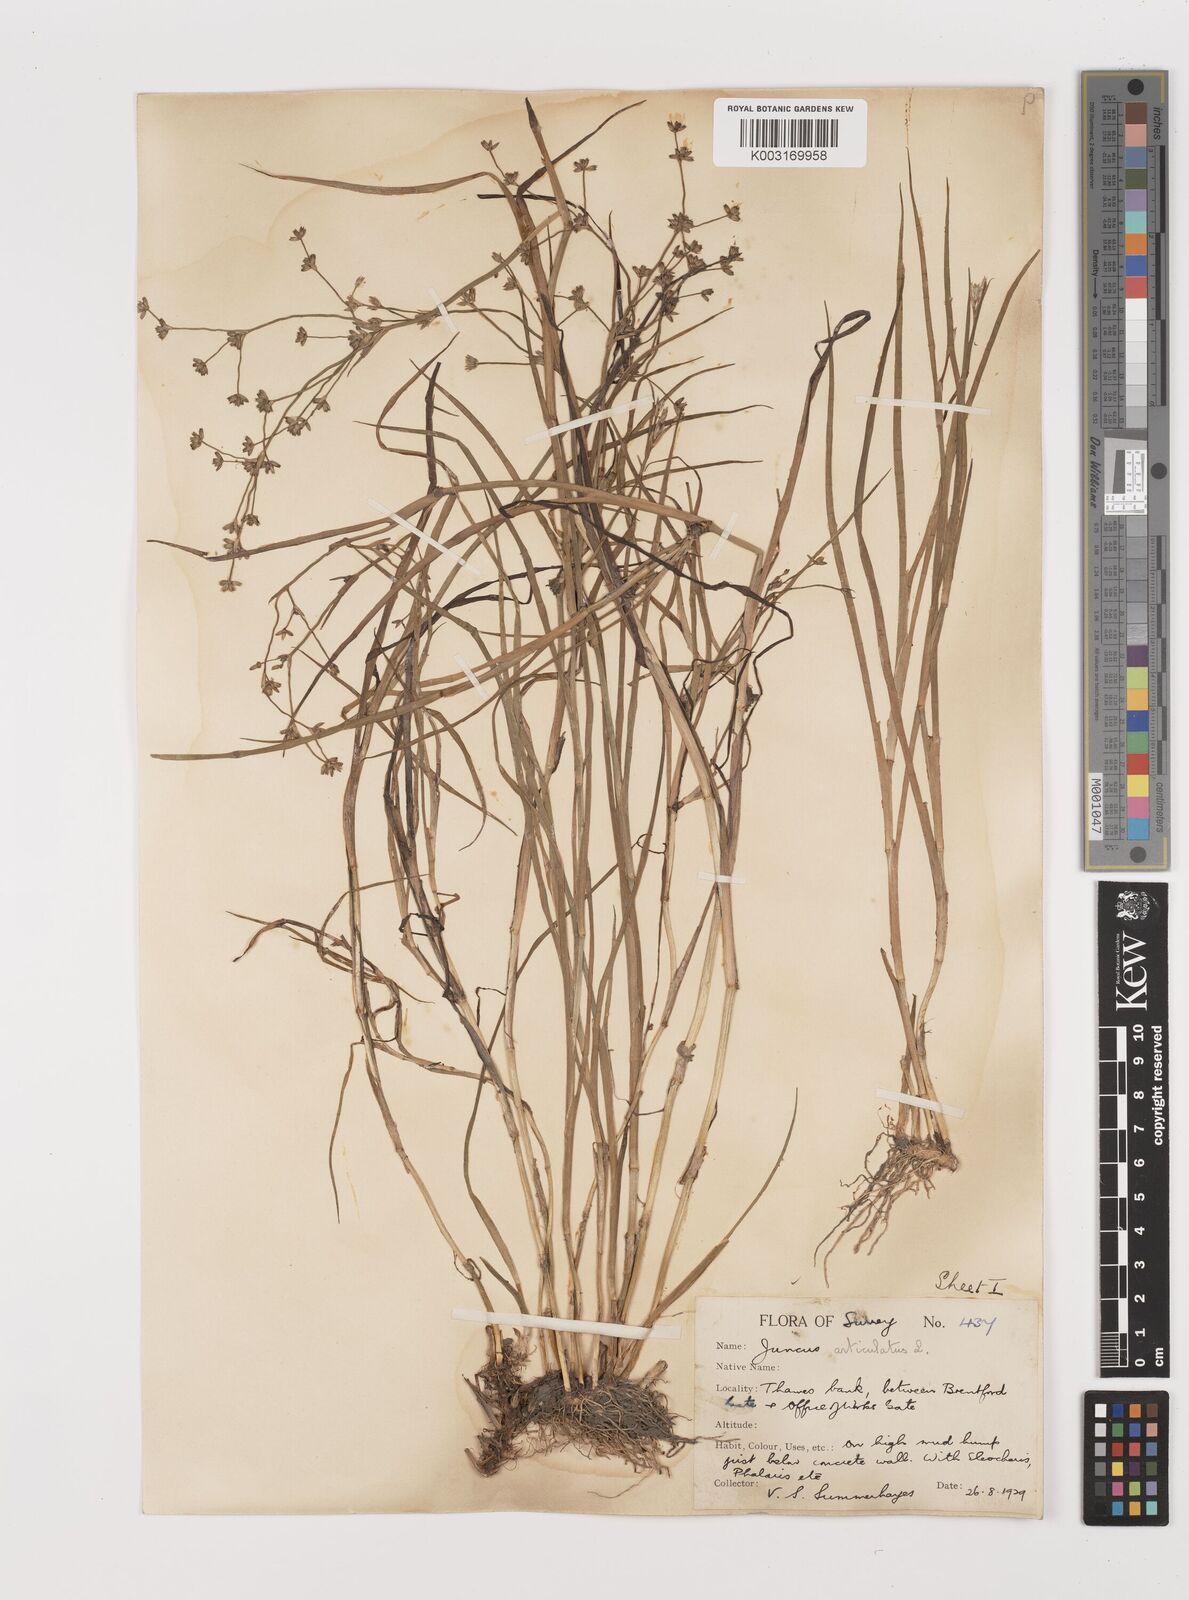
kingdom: Plantae
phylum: Tracheophyta
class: Liliopsida
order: Poales
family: Juncaceae
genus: Juncus
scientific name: Juncus articulatus
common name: Jointed rush
